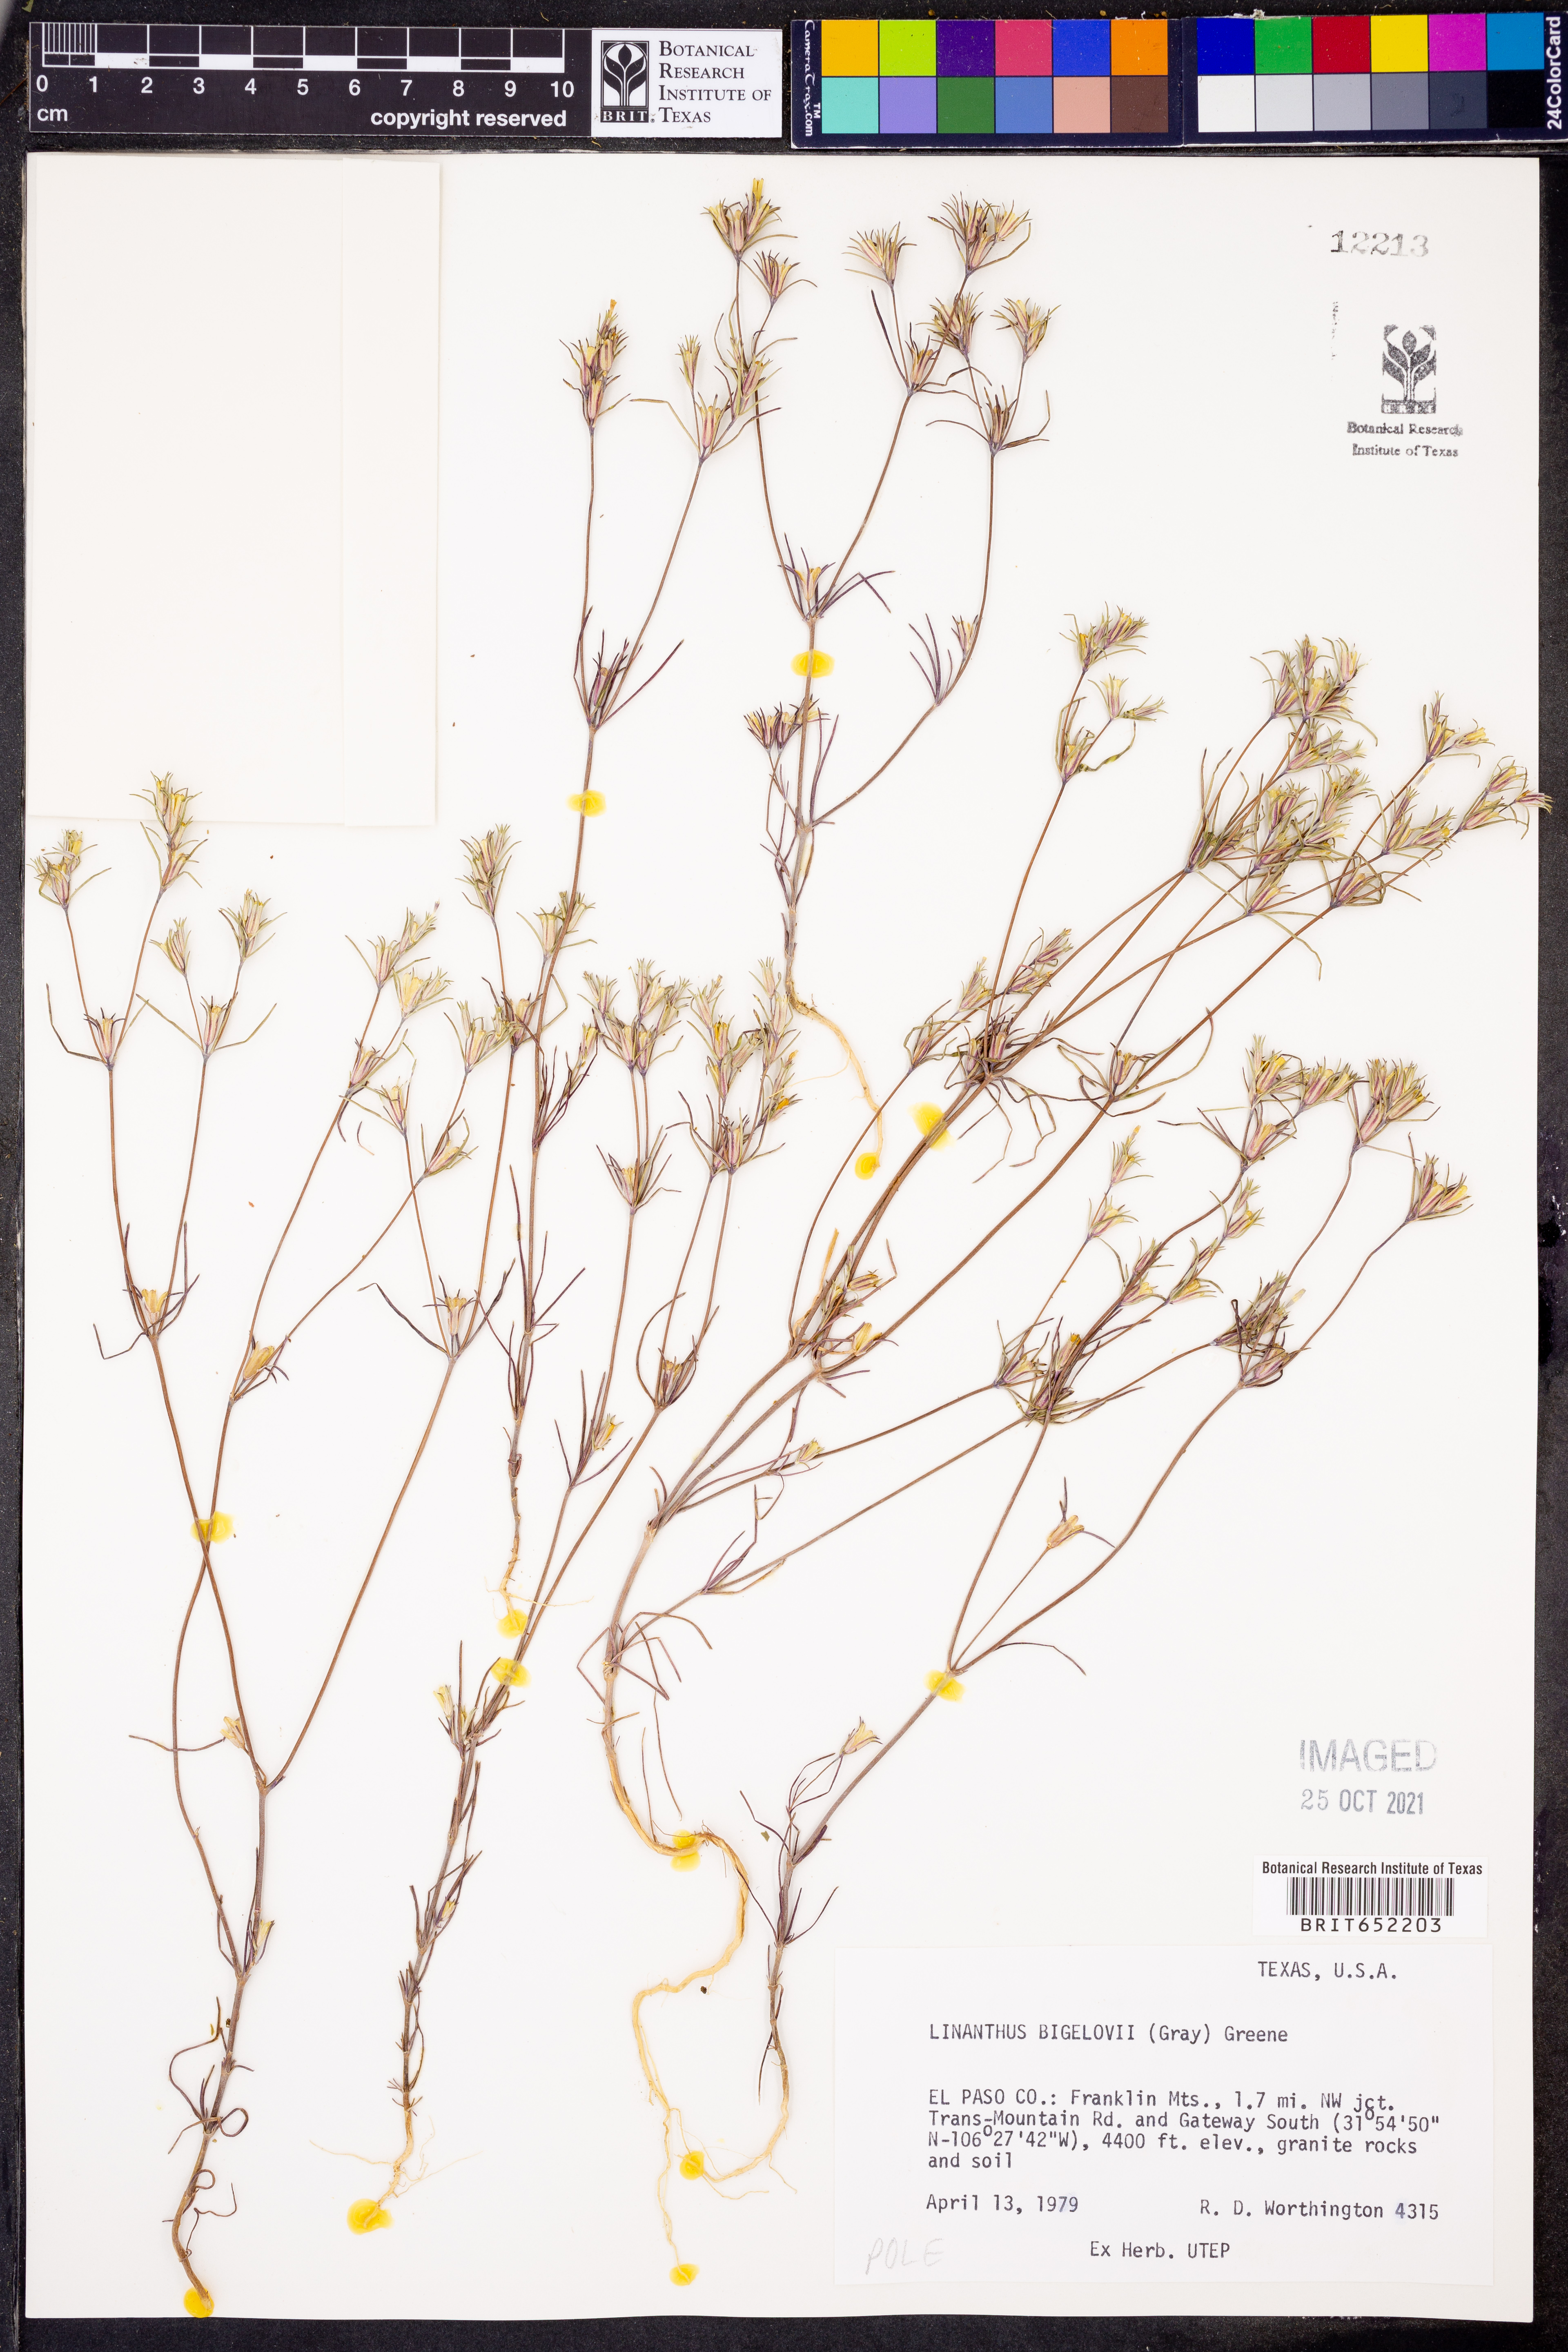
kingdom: Plantae
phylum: Tracheophyta
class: Magnoliopsida
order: Ericales
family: Polemoniaceae
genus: Linanthus
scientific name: Linanthus bigelovii
